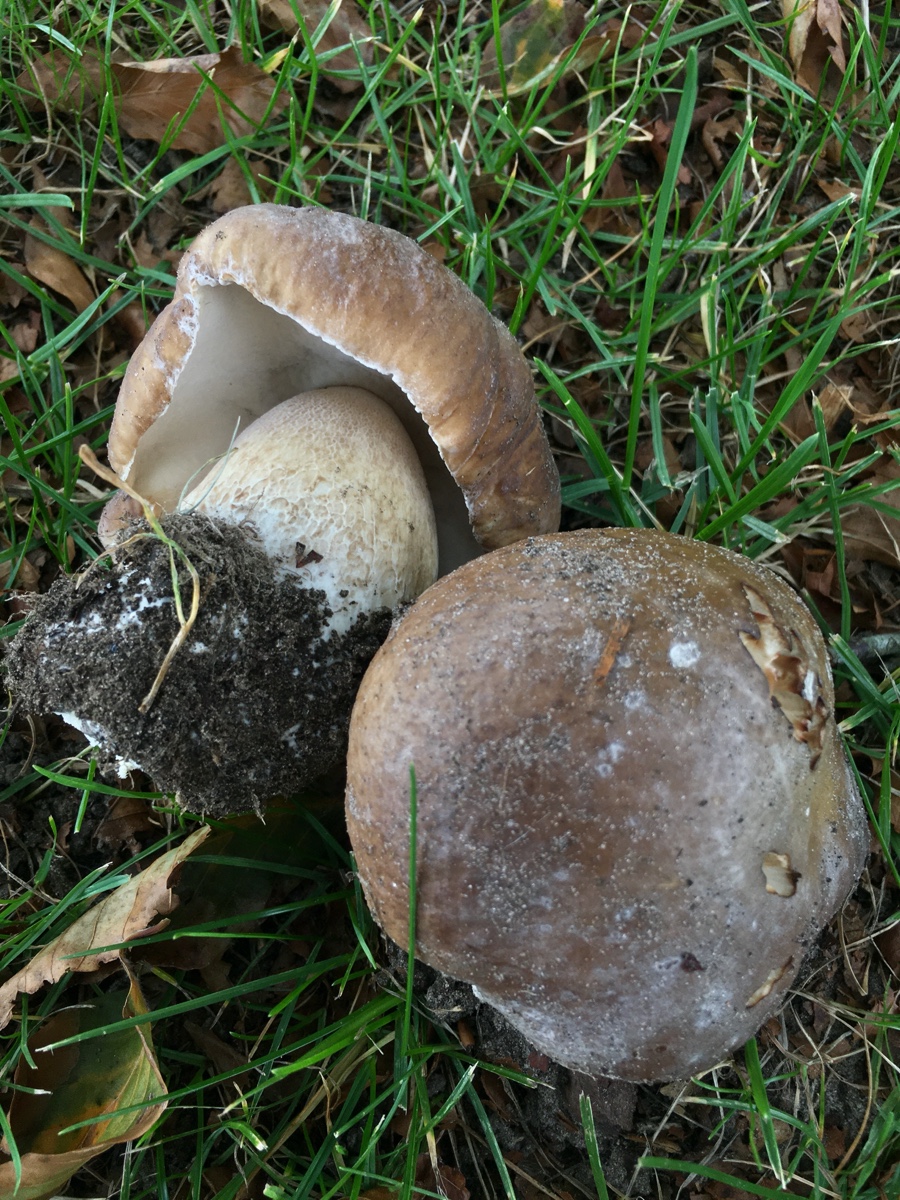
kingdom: Fungi
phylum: Basidiomycota
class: Agaricomycetes
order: Boletales
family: Boletaceae
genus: Boletus
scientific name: Boletus edulis
